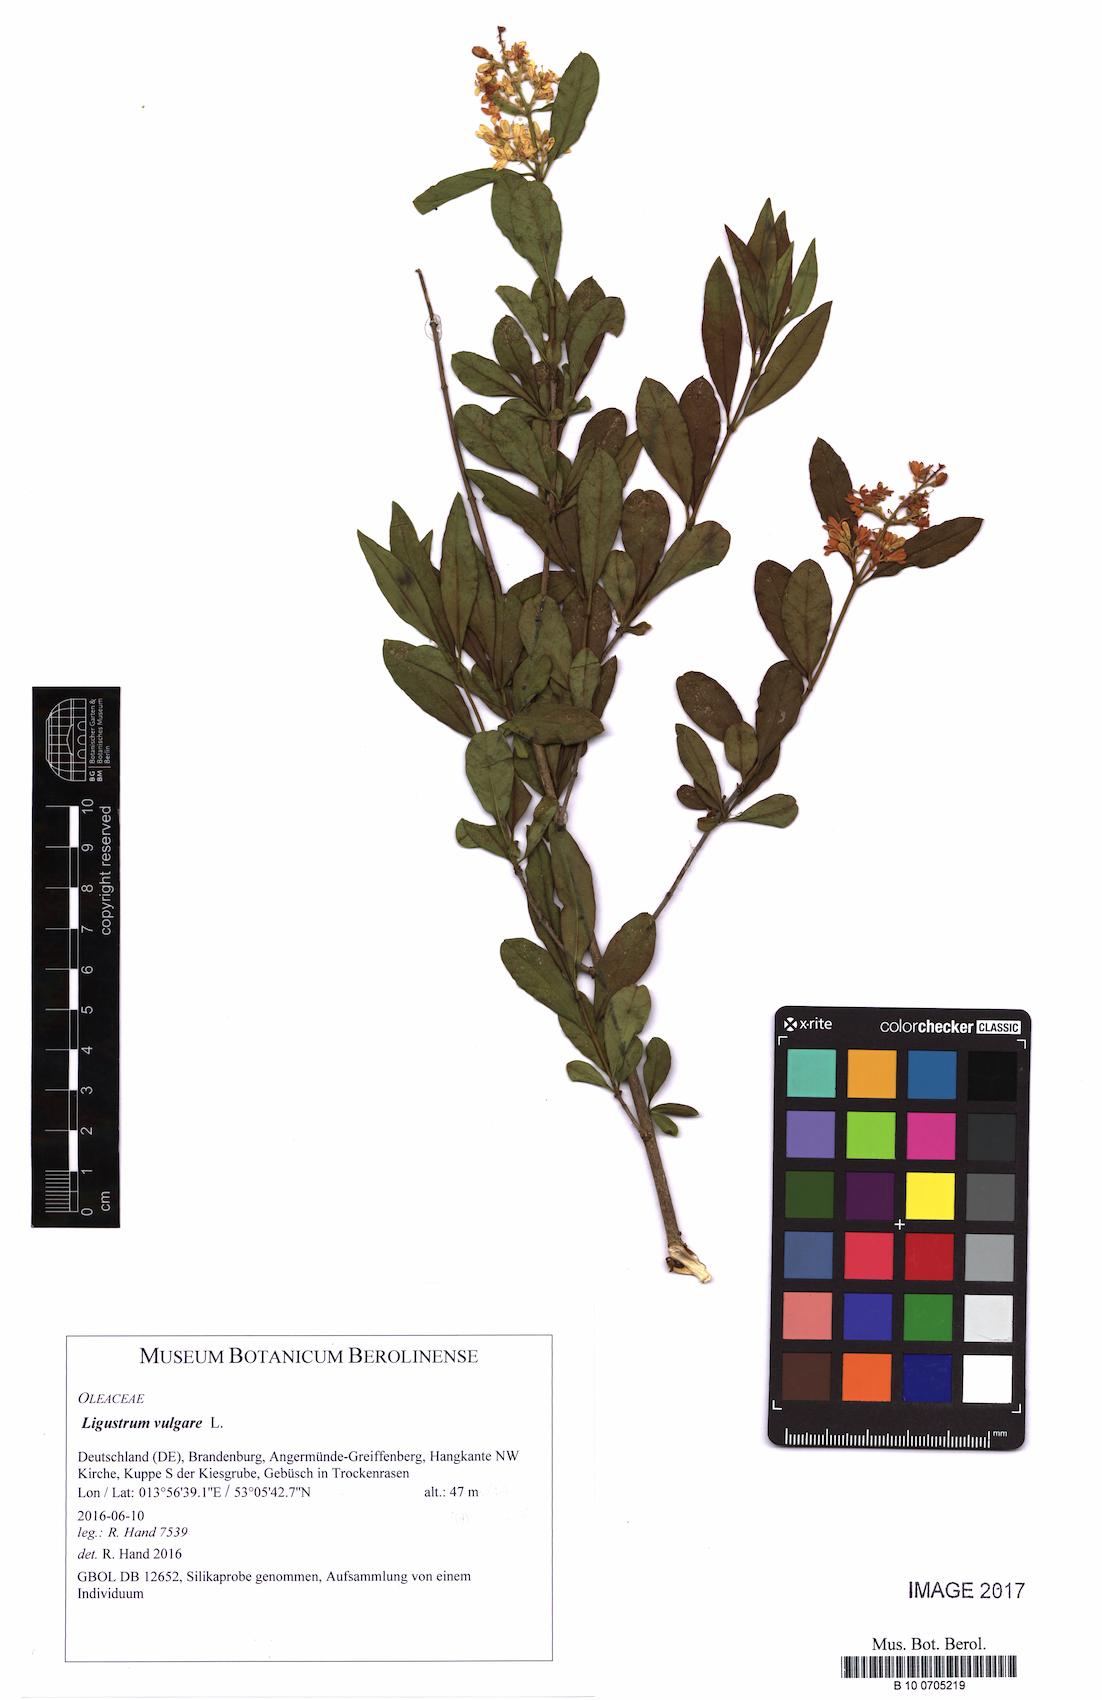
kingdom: Plantae
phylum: Tracheophyta
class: Magnoliopsida
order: Lamiales
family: Oleaceae
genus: Ligustrum
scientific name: Ligustrum vulgare
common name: Wild privet
